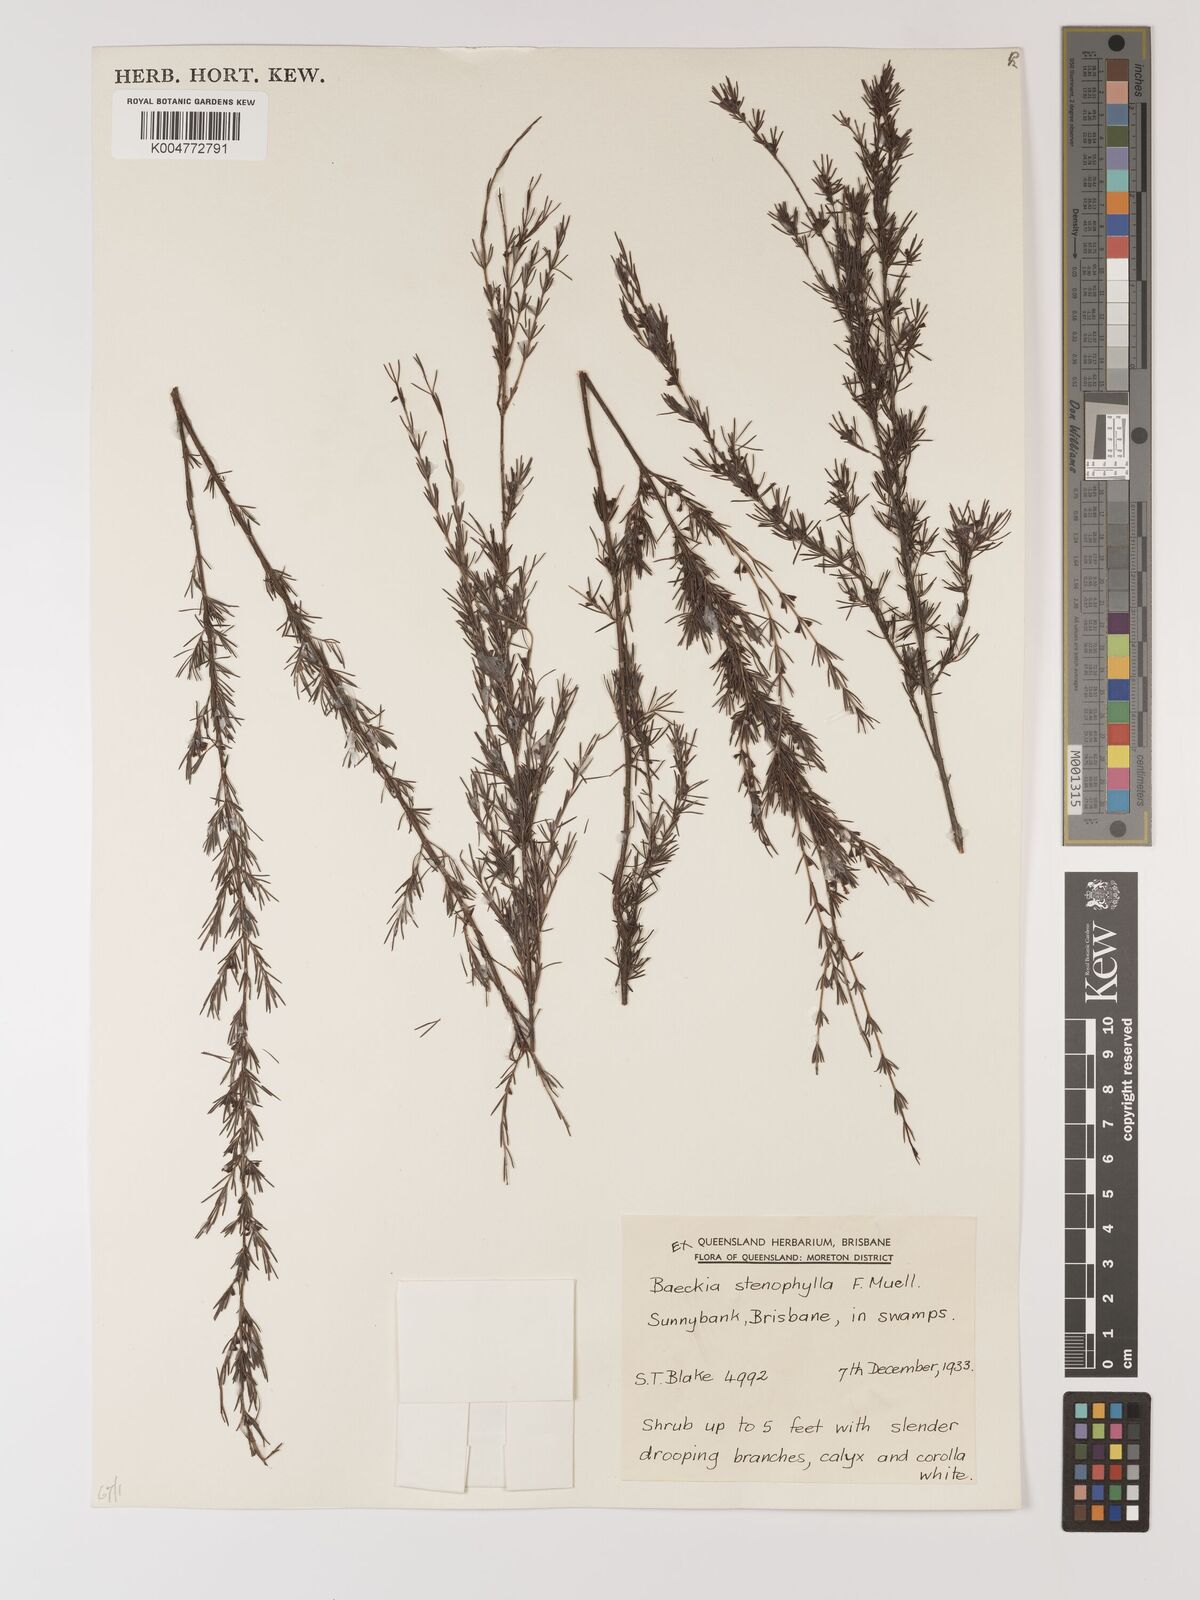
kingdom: Plantae
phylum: Tracheophyta
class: Magnoliopsida
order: Myrtales
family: Myrtaceae
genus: Baeckea
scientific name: Baeckea frutescens
